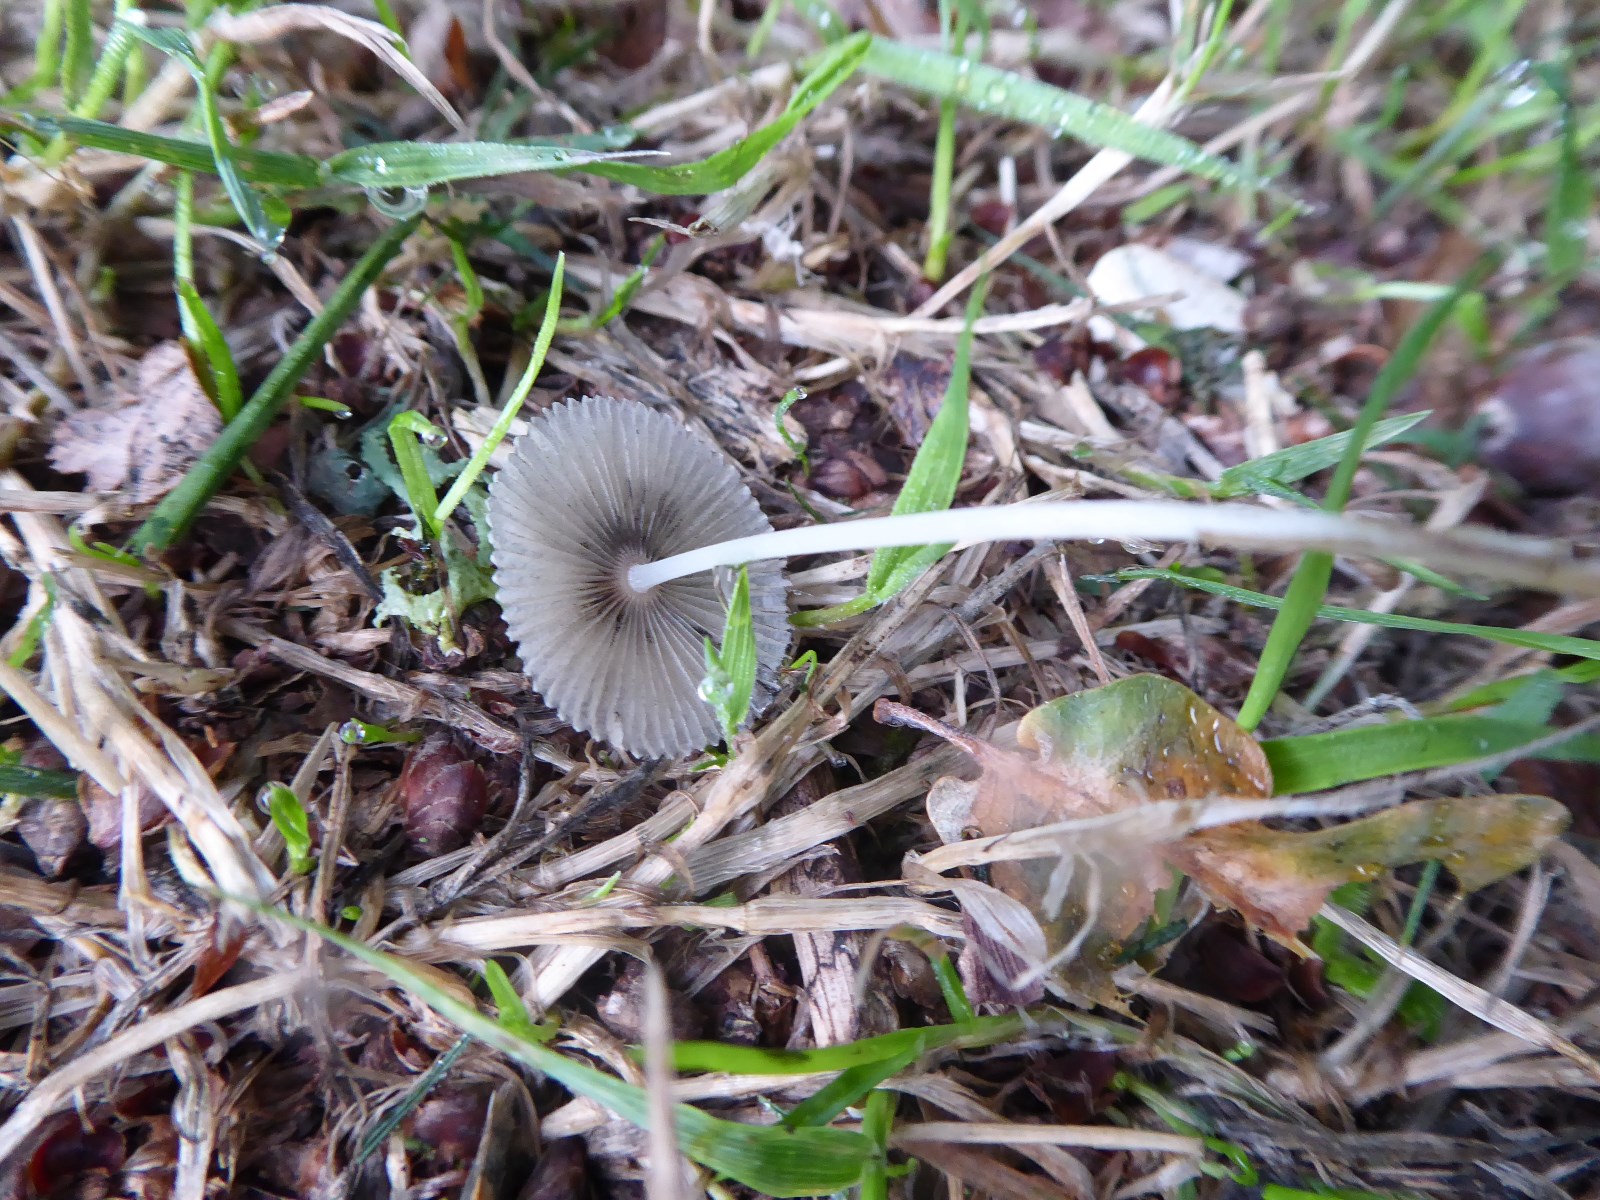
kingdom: Fungi
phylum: Basidiomycota
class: Agaricomycetes
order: Agaricales
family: Psathyrellaceae
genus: Parasola
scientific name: Parasola
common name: hjulhat
